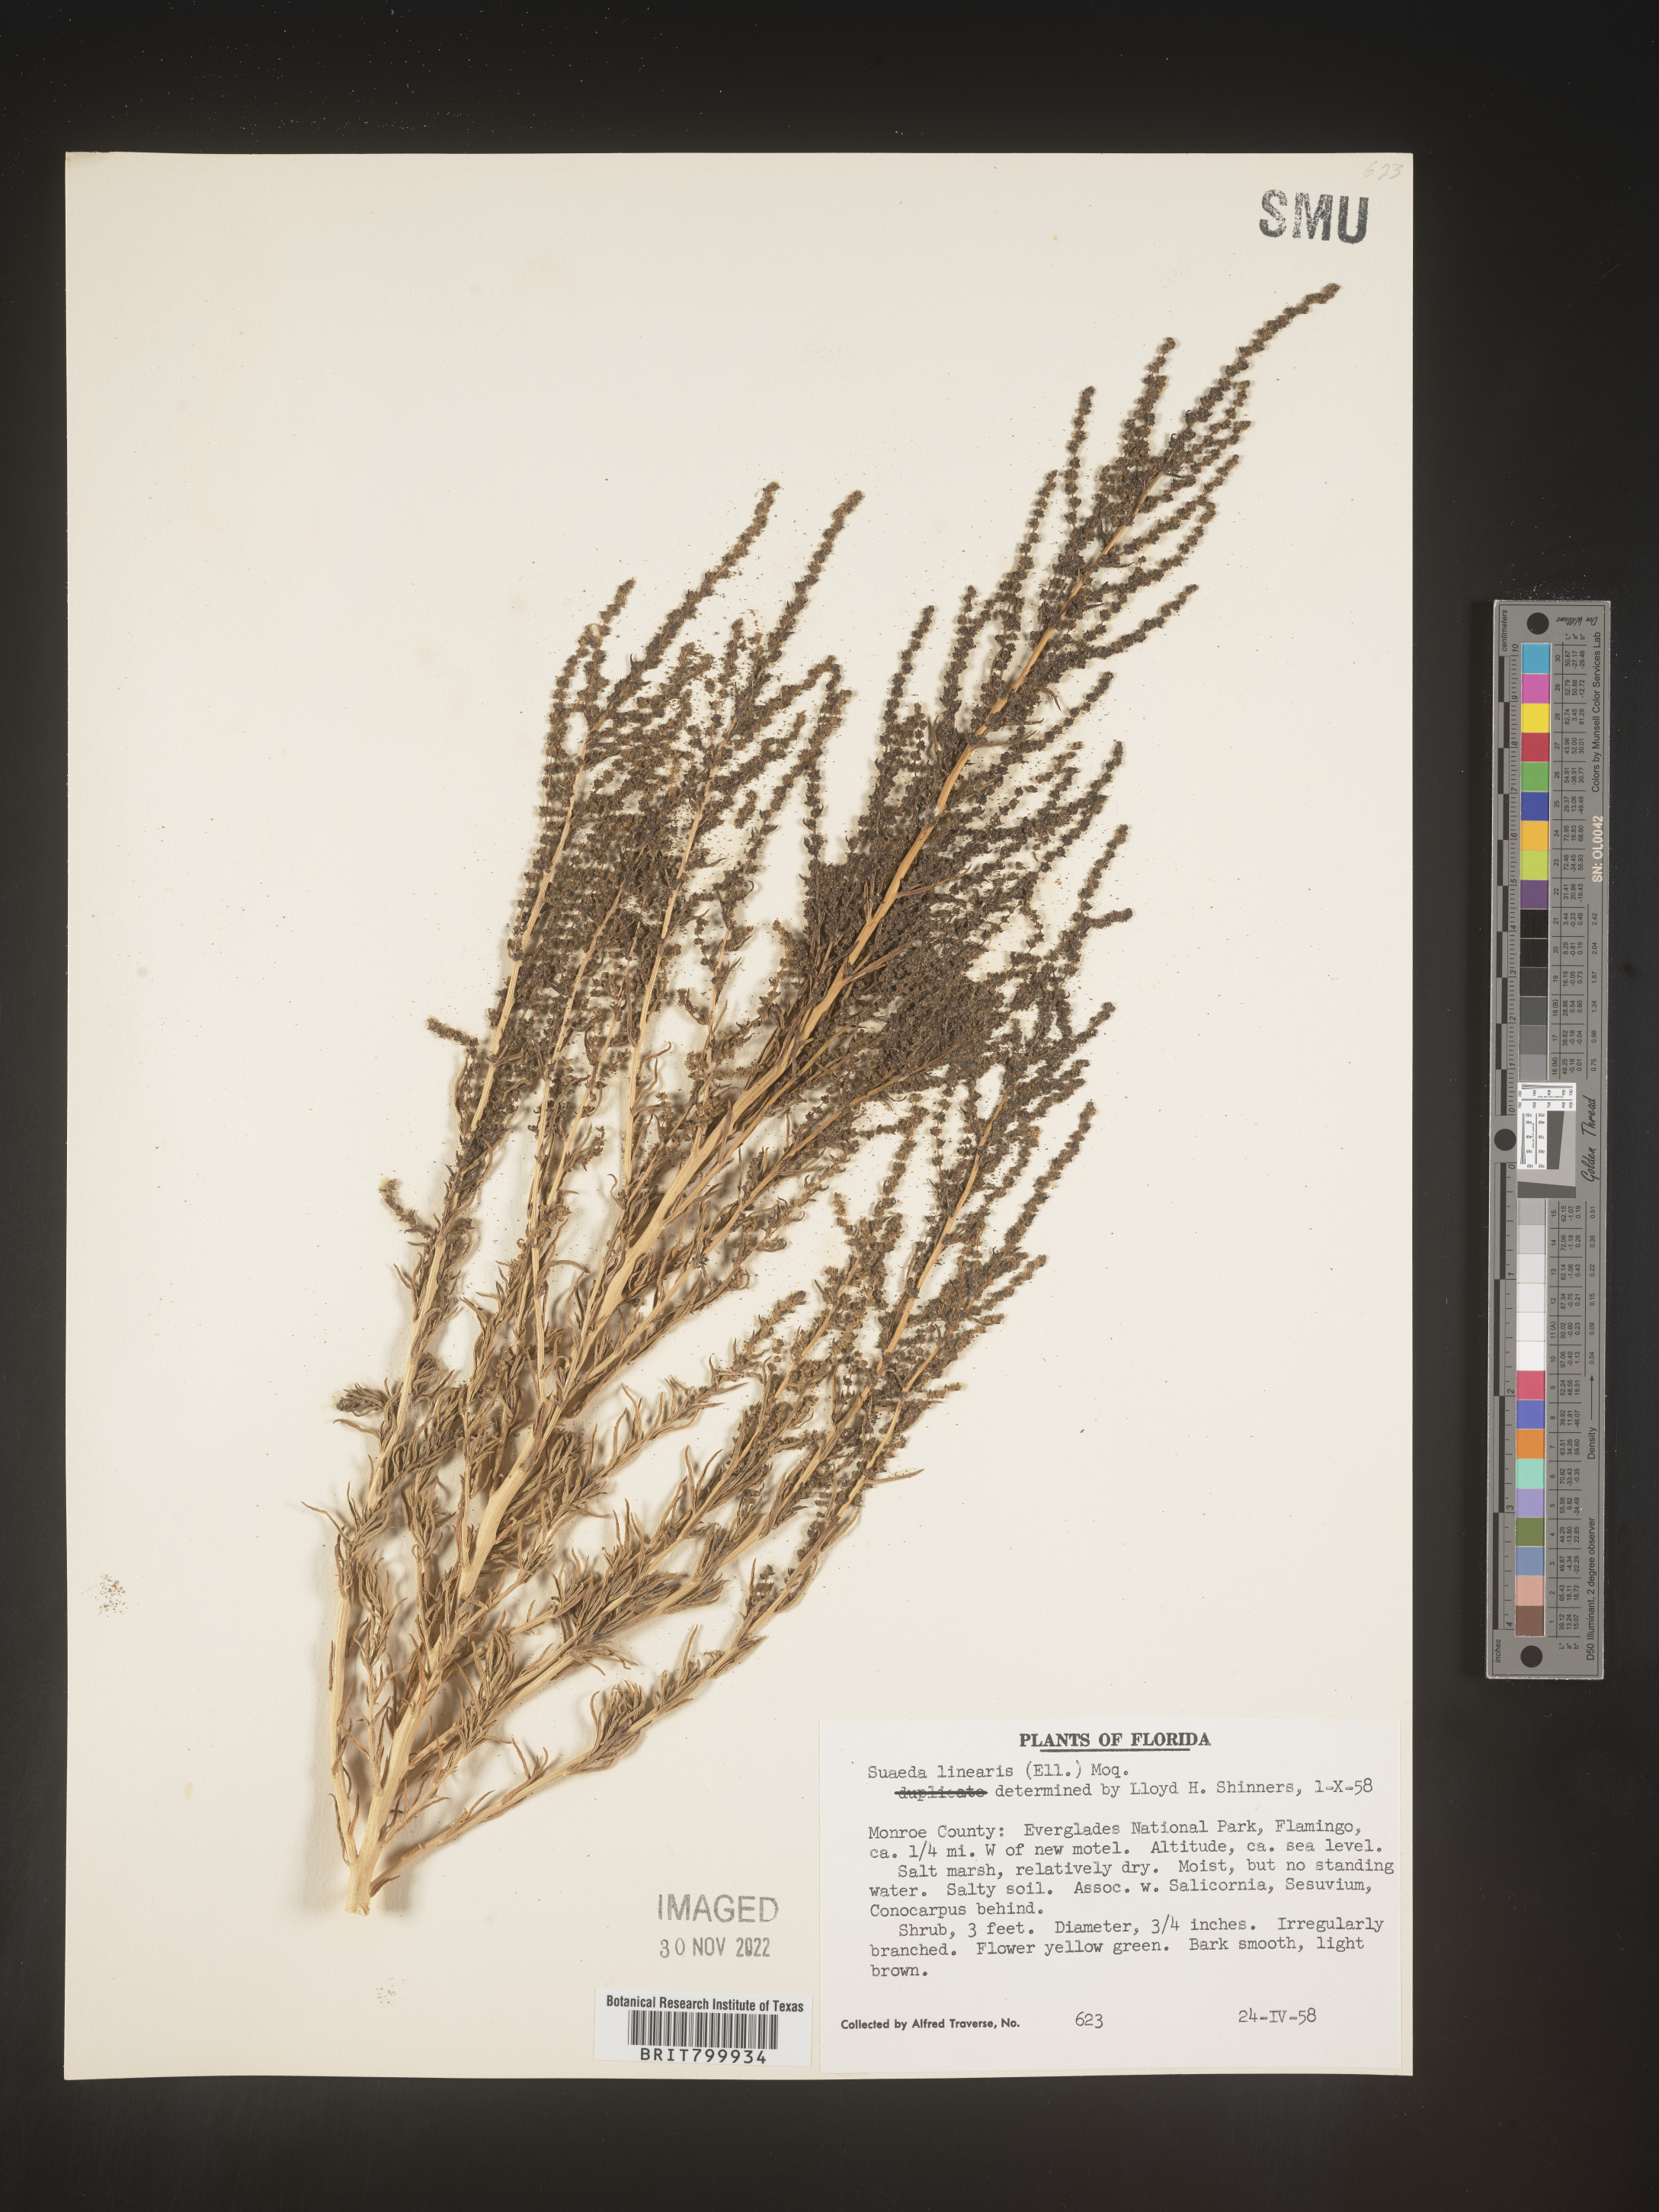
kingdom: Plantae
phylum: Tracheophyta
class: Magnoliopsida
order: Caryophyllales
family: Amaranthaceae
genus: Suaeda
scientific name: Suaeda linearis
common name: Annual seepweed
